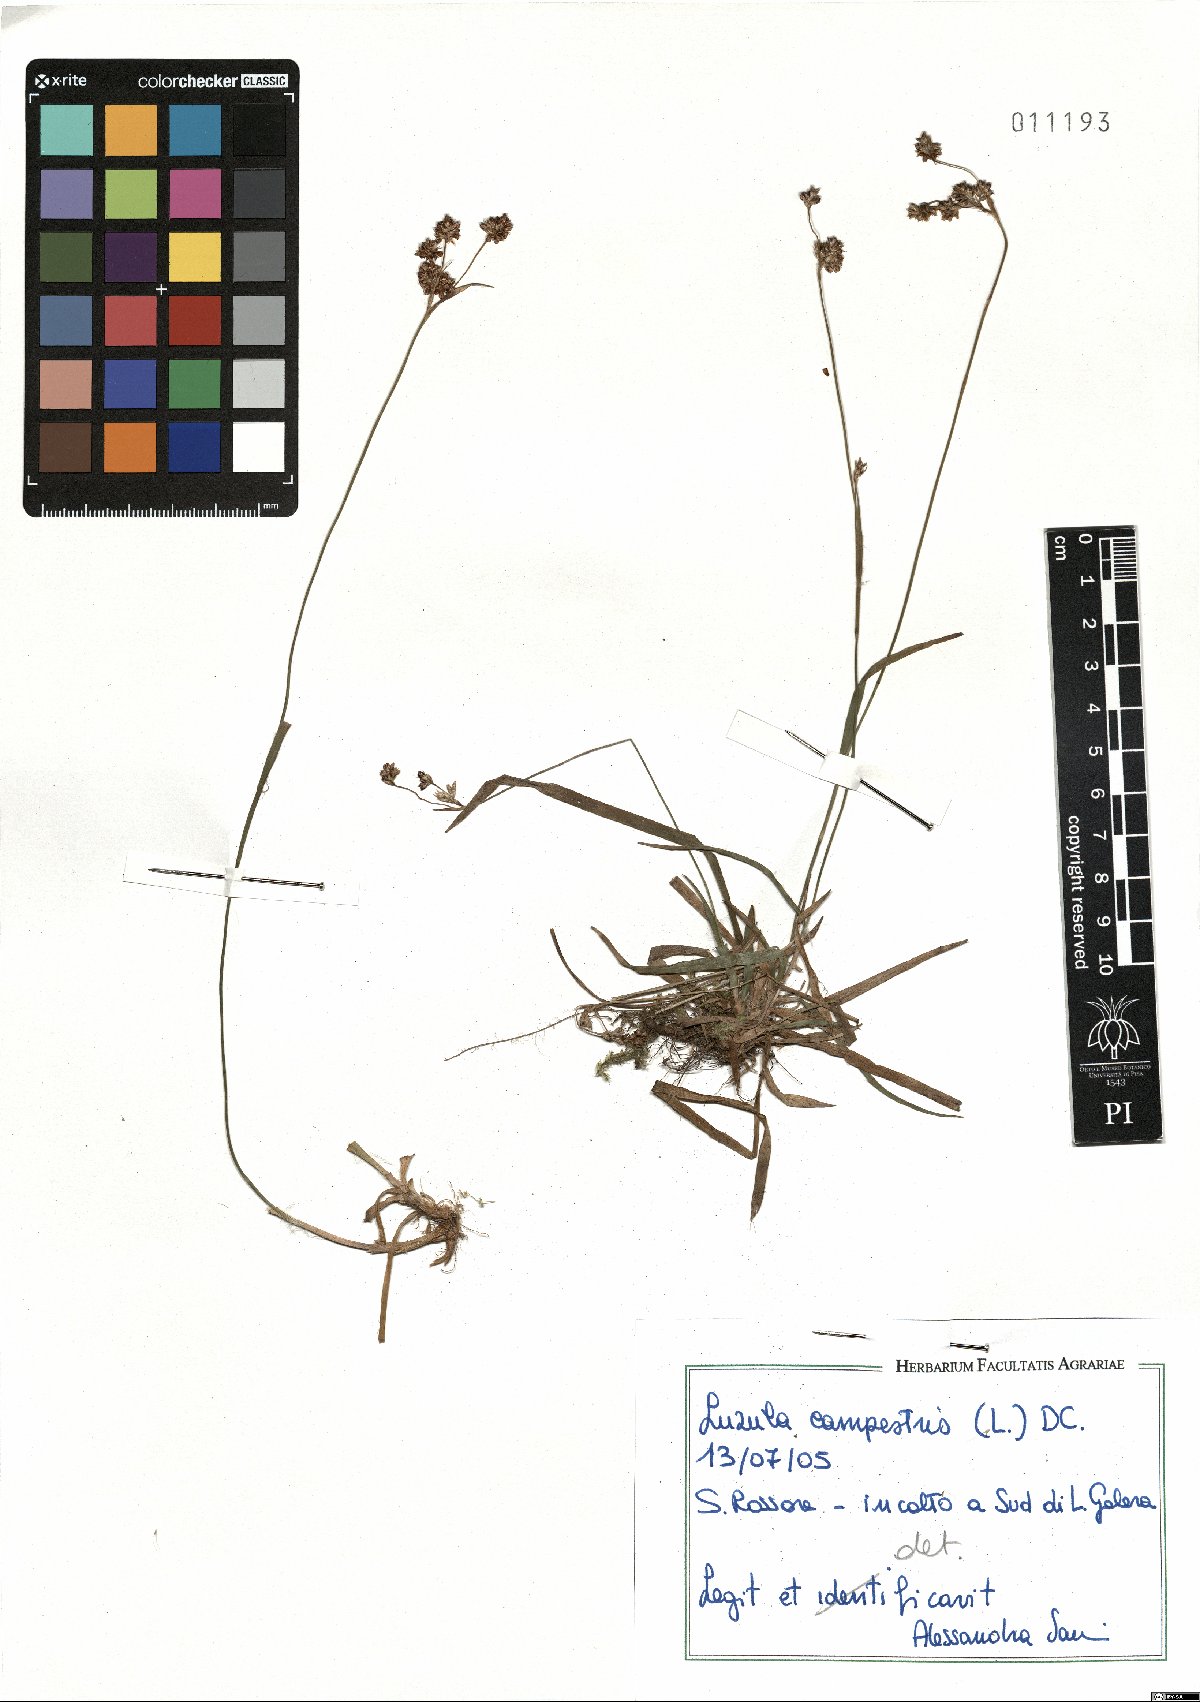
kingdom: Plantae
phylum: Tracheophyta
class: Liliopsida
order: Poales
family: Juncaceae
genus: Luzula
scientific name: Luzula campestris
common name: Field wood-rush
